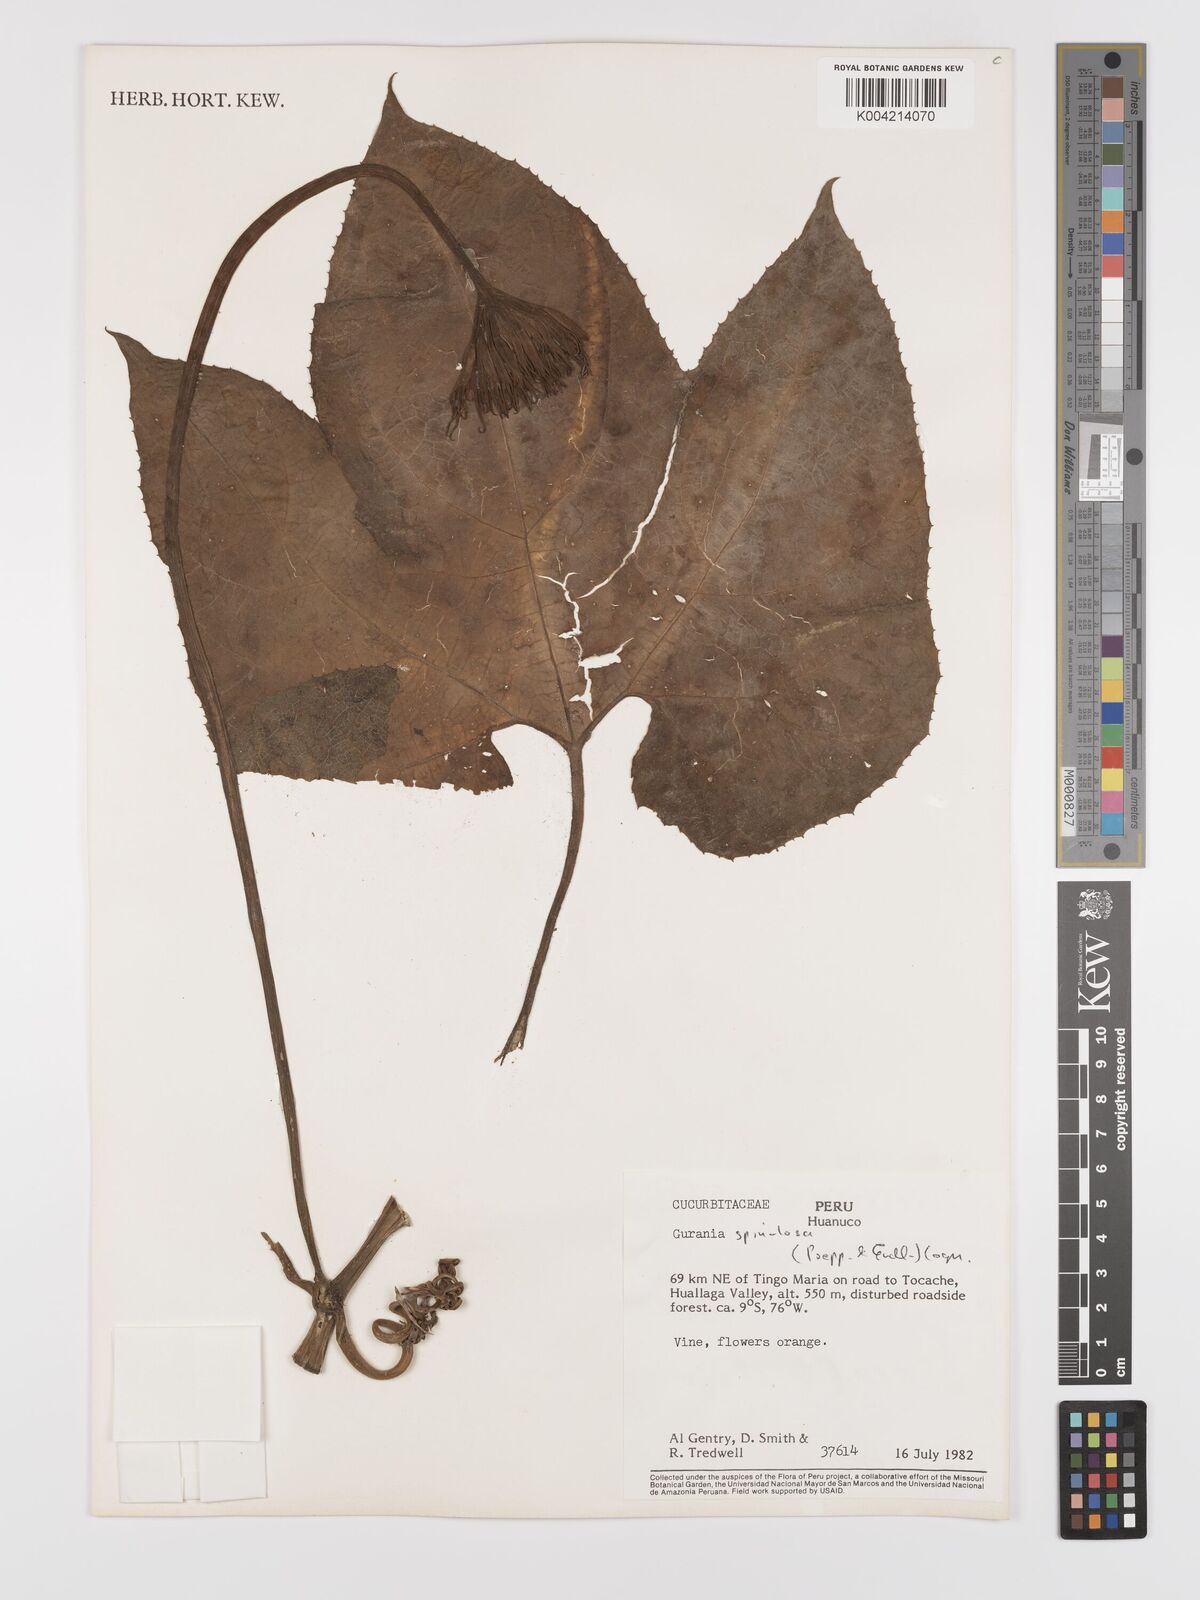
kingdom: Plantae
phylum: Tracheophyta
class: Magnoliopsida
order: Cucurbitales
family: Cucurbitaceae
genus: Gurania
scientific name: Gurania lobata
